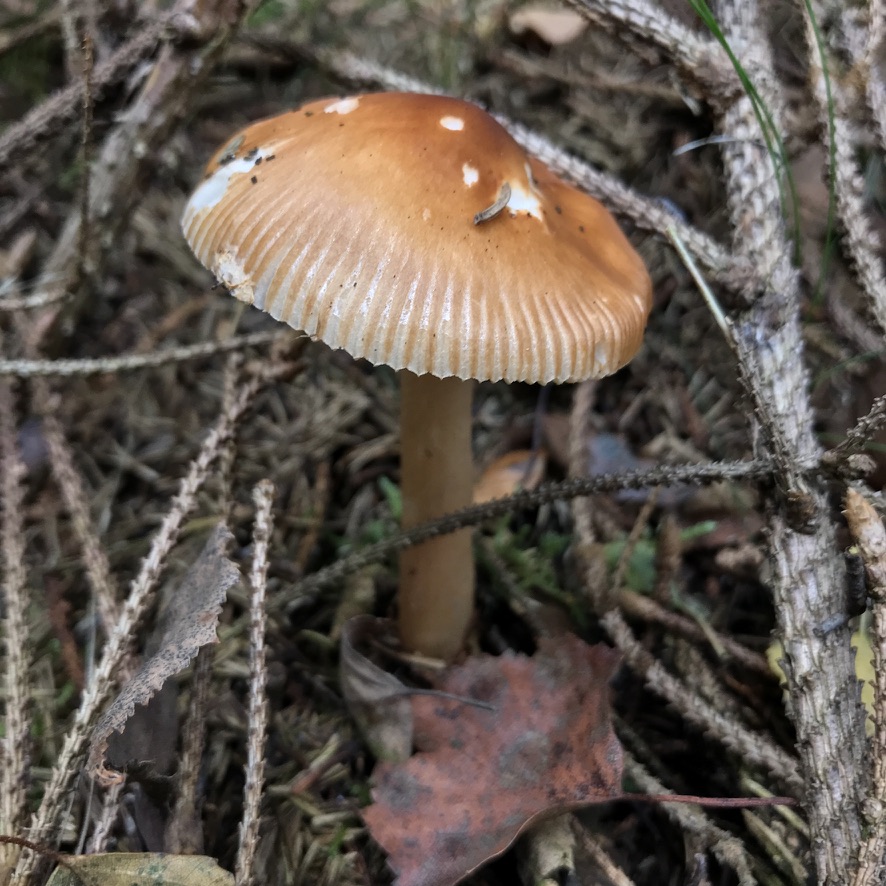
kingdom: Fungi
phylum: Basidiomycota
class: Agaricomycetes
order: Agaricales
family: Amanitaceae
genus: Amanita
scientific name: Amanita fulva
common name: brun kam-fluesvamp
